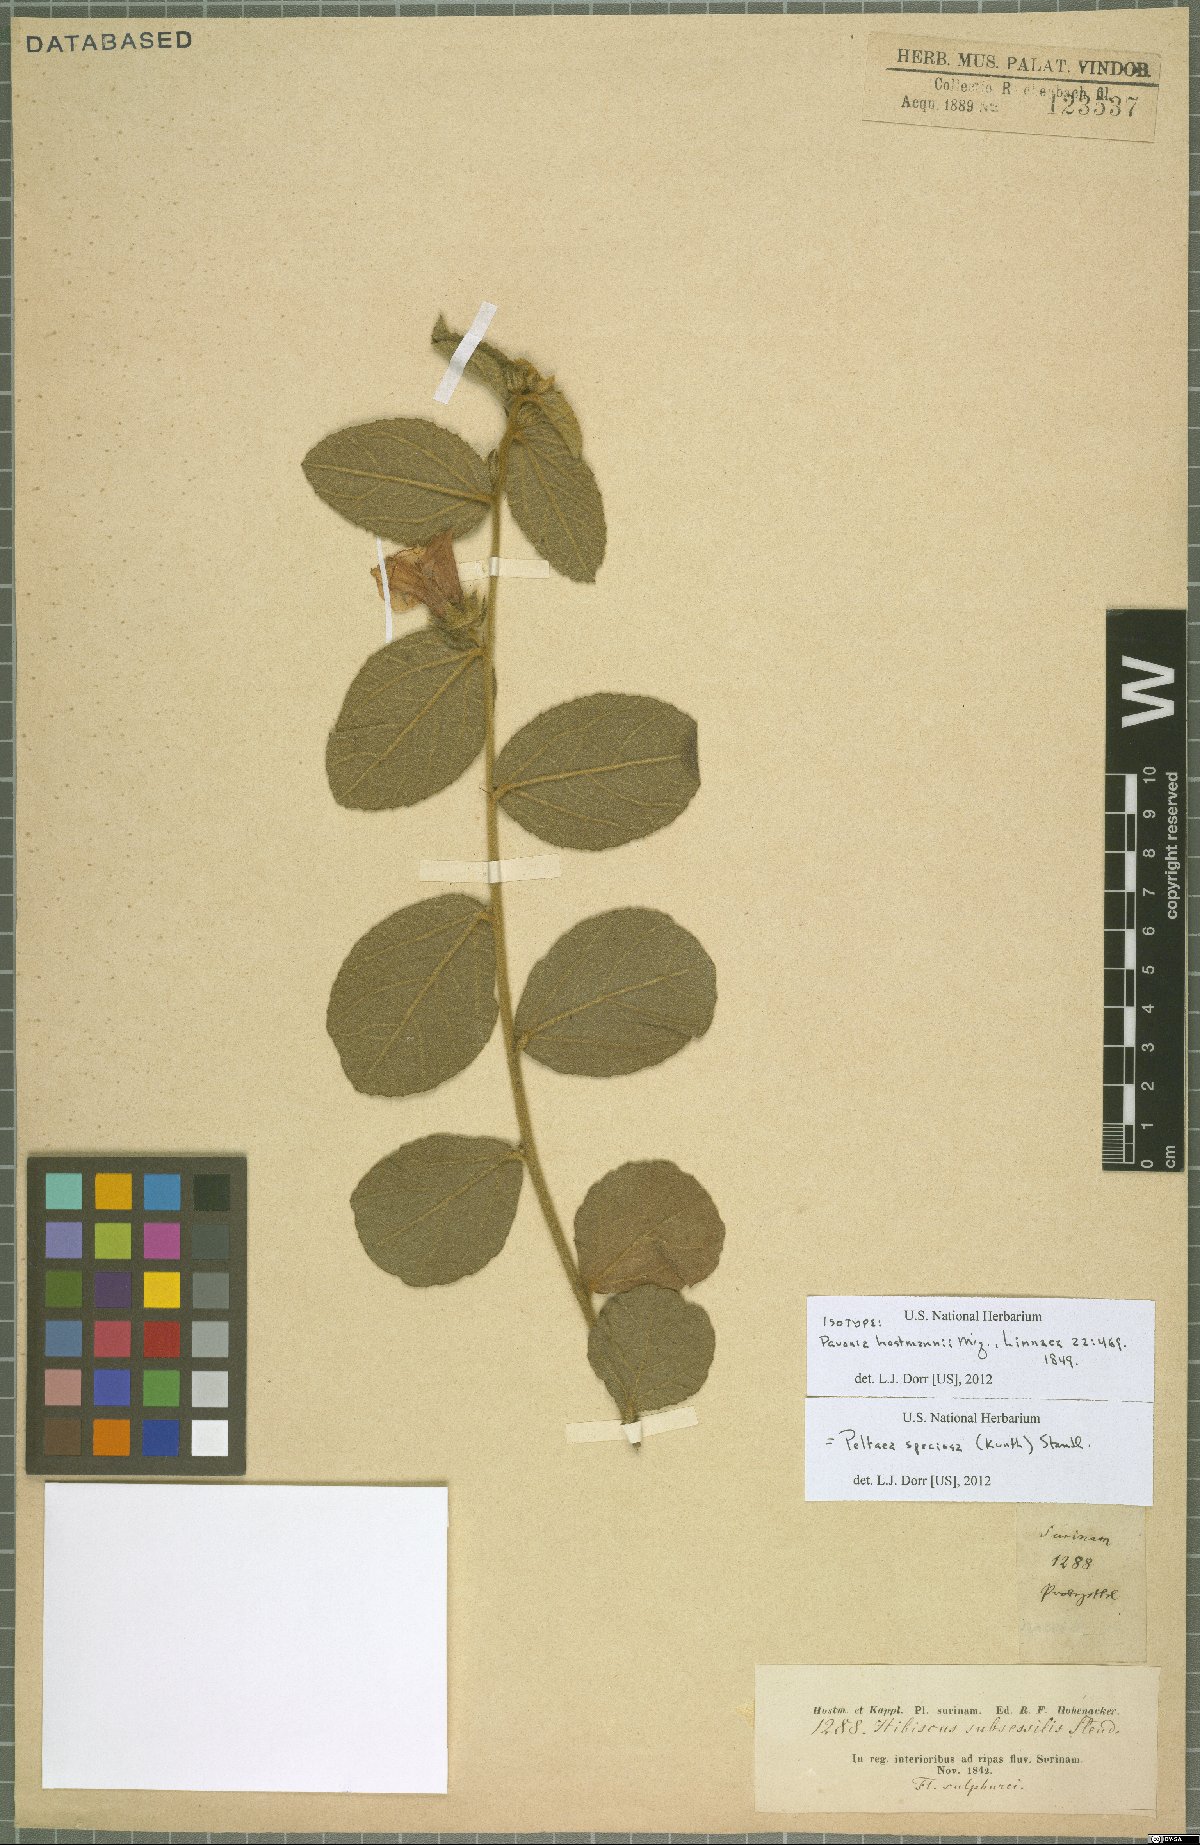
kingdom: Plantae
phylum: Tracheophyta
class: Magnoliopsida
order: Malvales
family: Malvaceae
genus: Peltaea
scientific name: Peltaea speciosa
